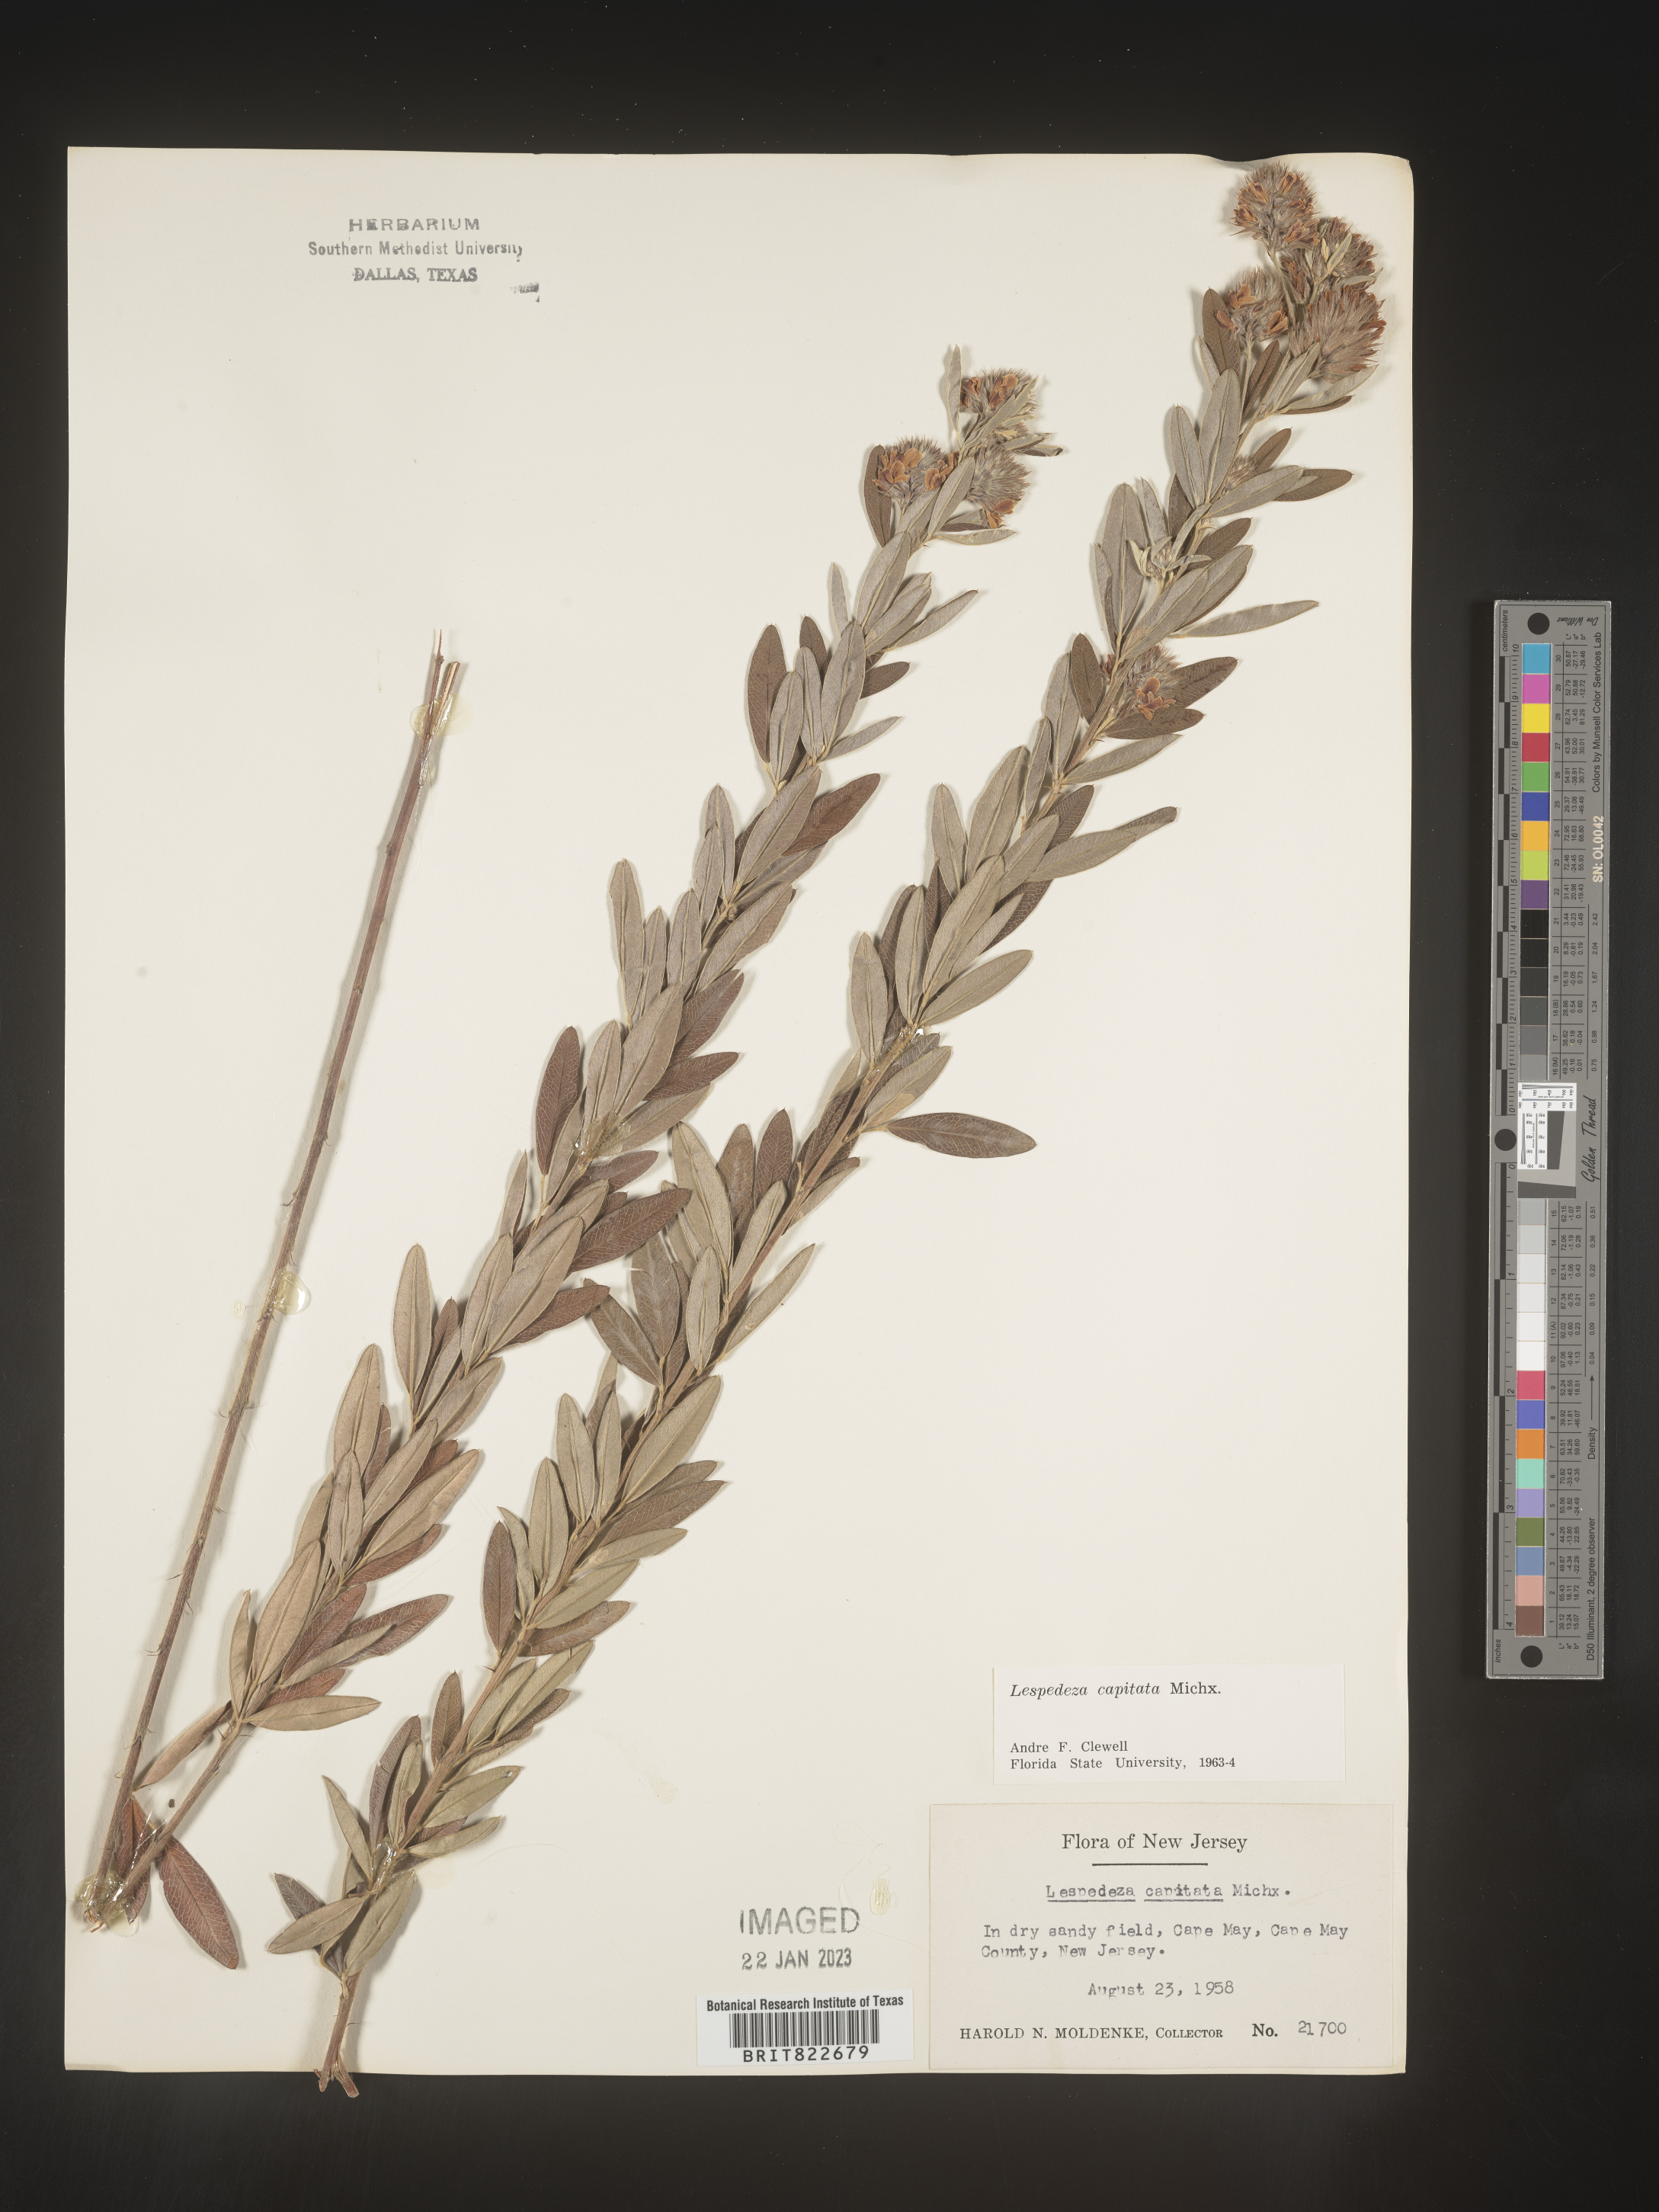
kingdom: Plantae
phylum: Tracheophyta
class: Magnoliopsida
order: Fabales
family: Fabaceae
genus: Lespedeza
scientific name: Lespedeza capitata
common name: Dusty clover
